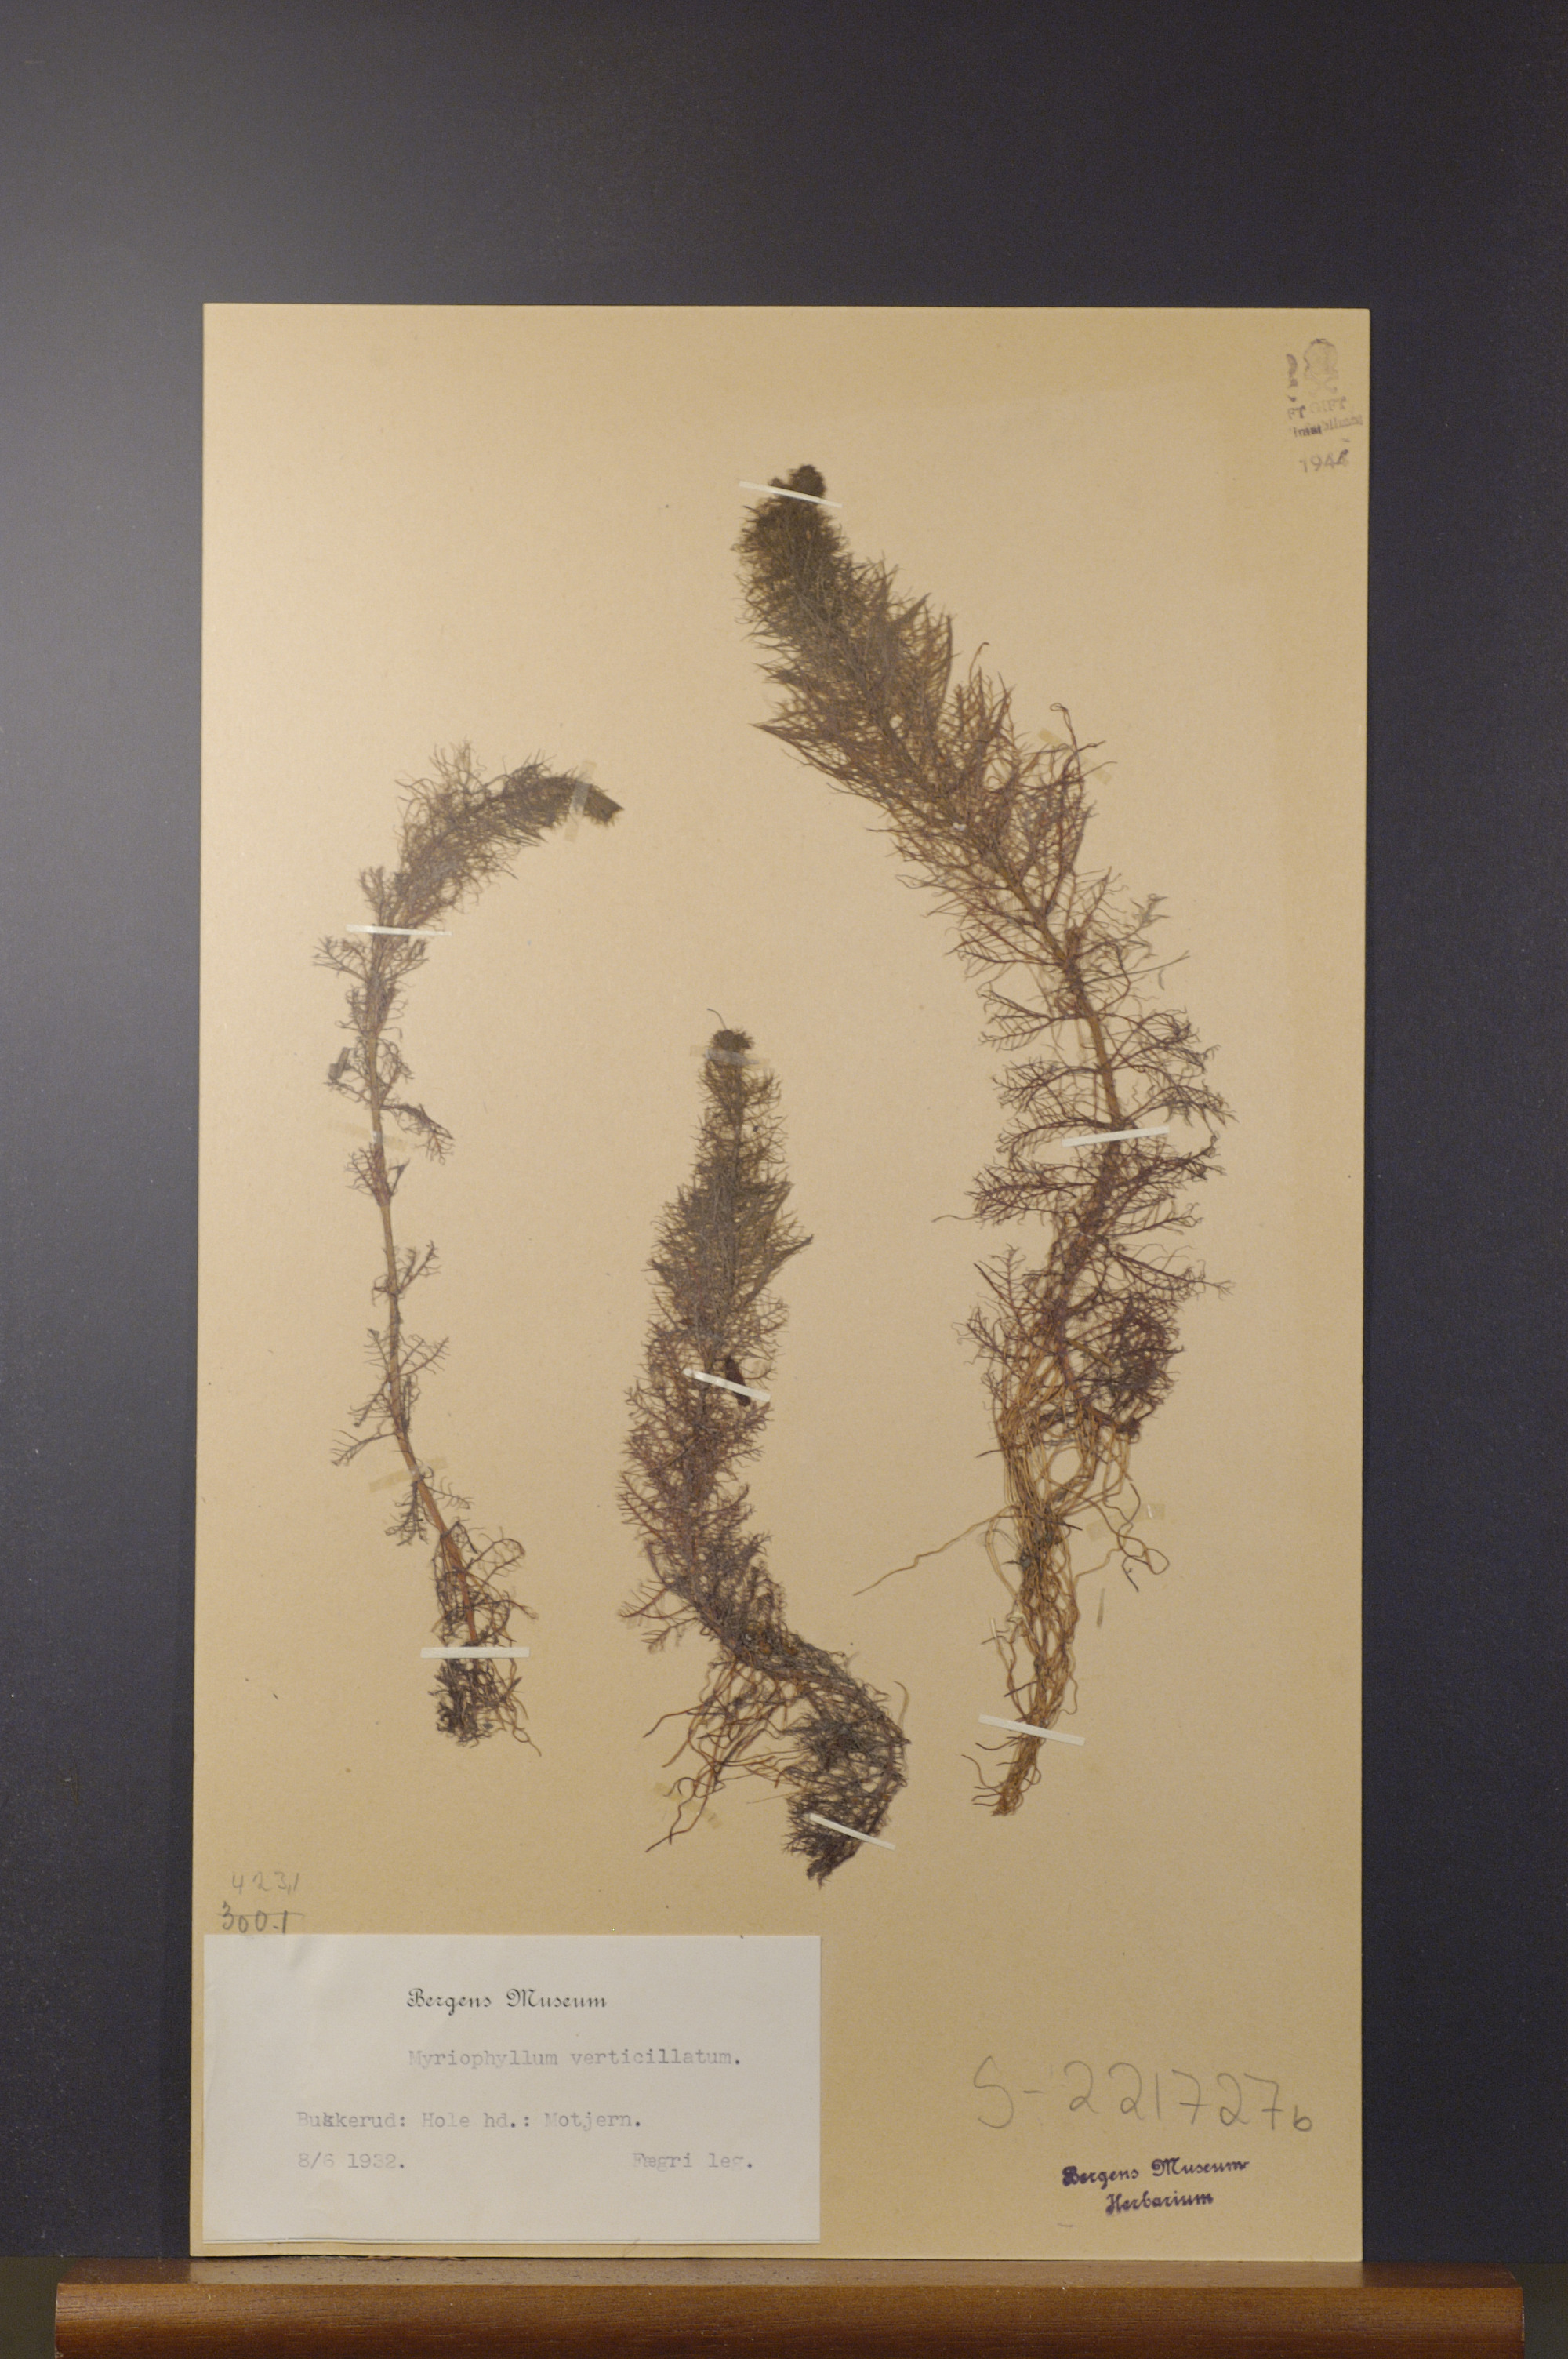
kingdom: Plantae
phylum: Tracheophyta
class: Magnoliopsida
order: Saxifragales
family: Haloragaceae
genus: Myriophyllum
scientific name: Myriophyllum verticillatum
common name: Whorled water-milfoil
